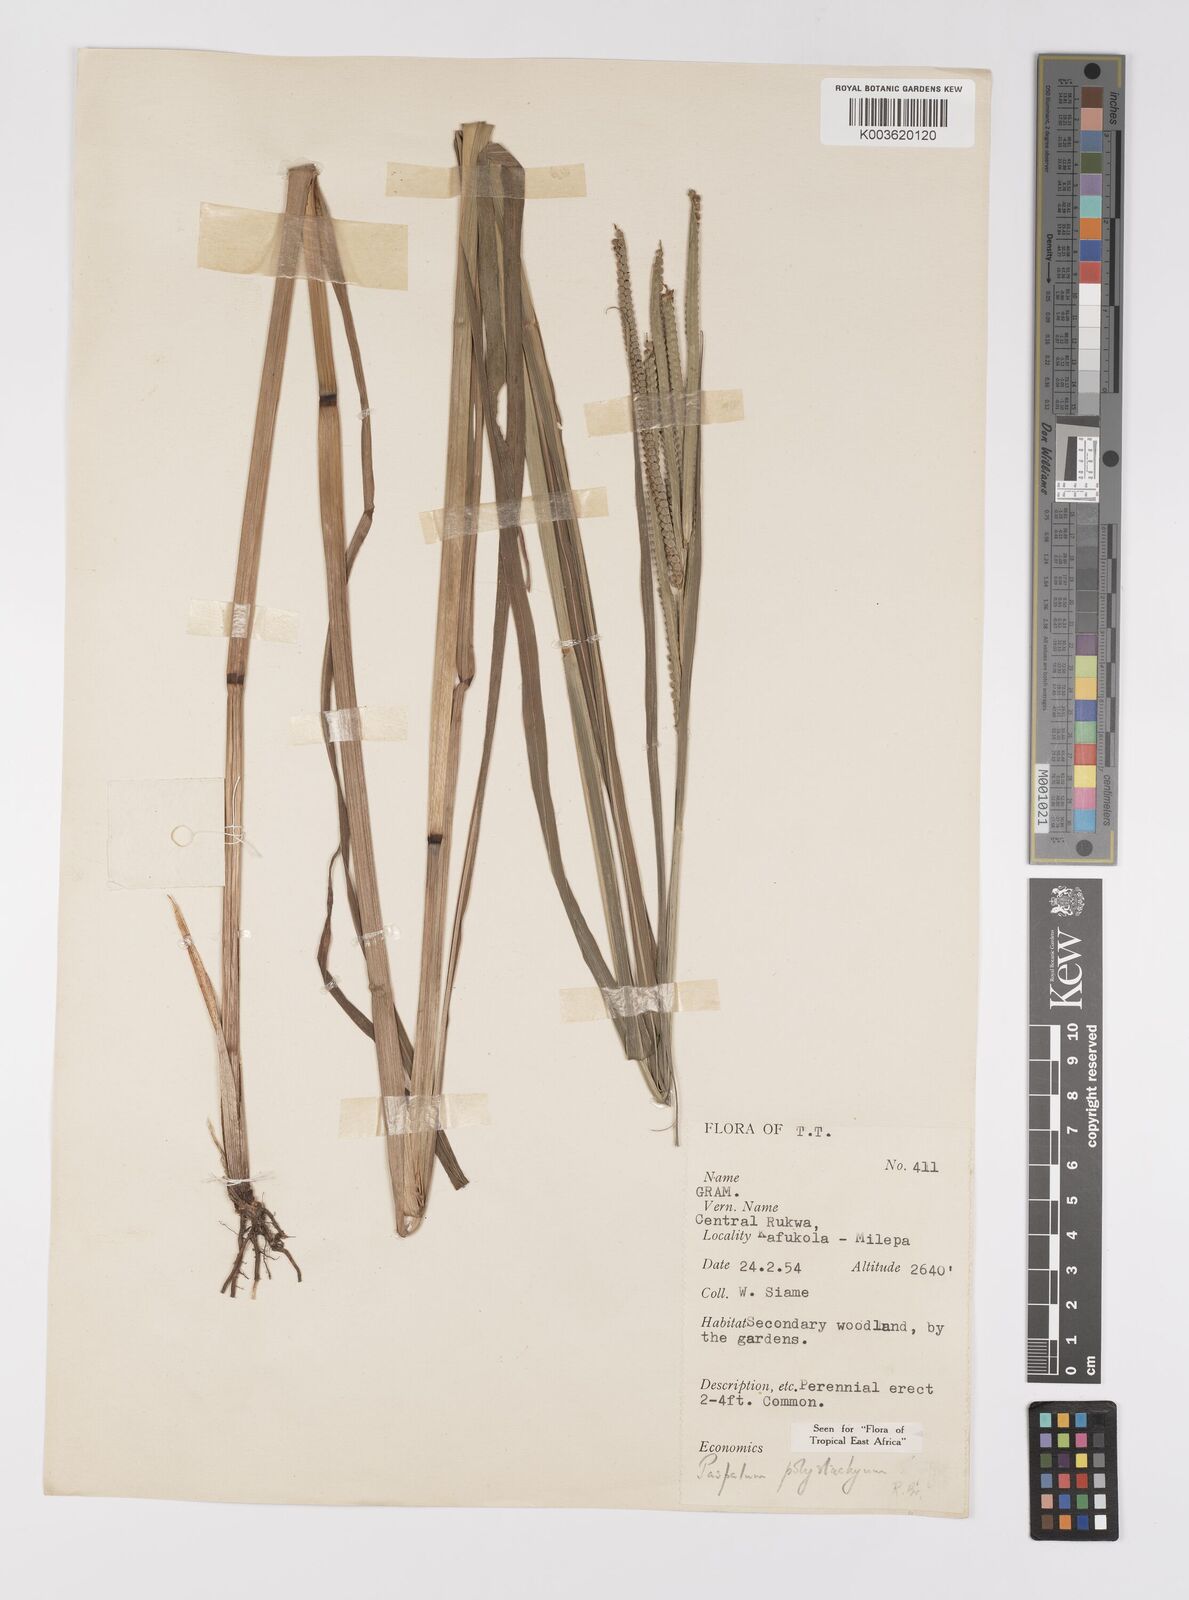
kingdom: Plantae
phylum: Tracheophyta
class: Liliopsida
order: Poales
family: Poaceae
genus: Paspalum
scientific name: Paspalum scrobiculatum
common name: Kodo millet
